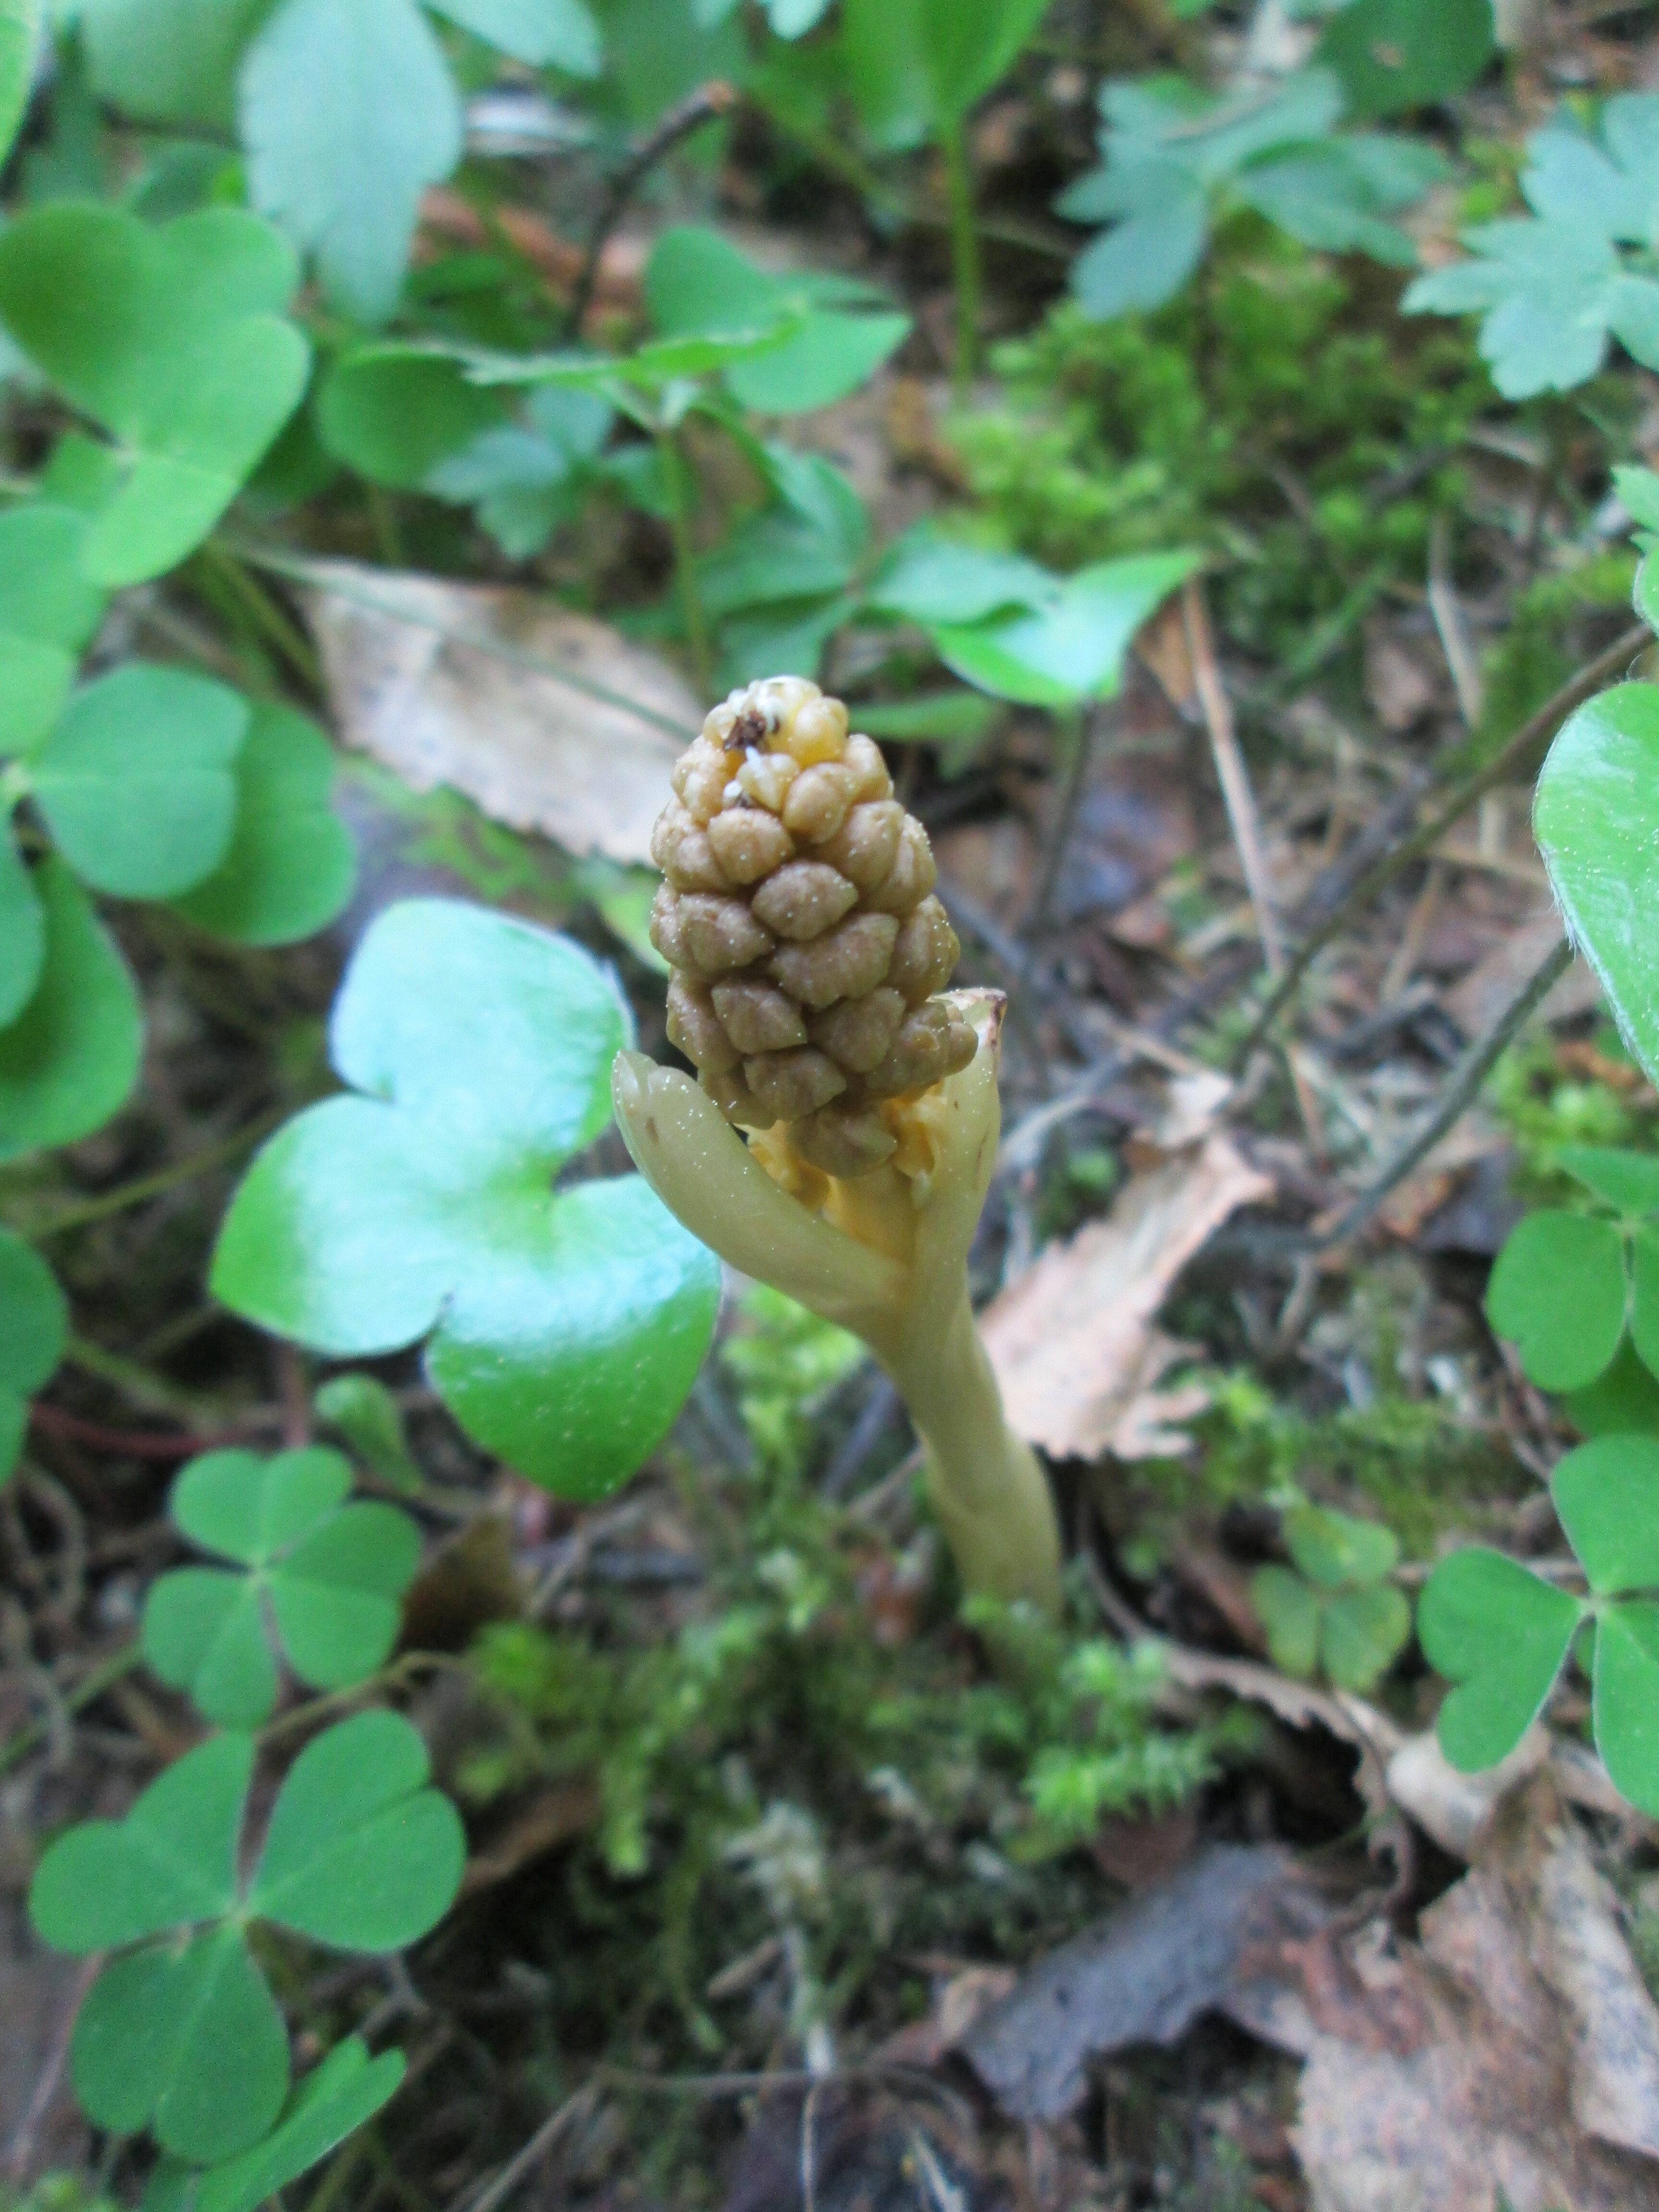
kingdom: Plantae
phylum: Tracheophyta
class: Liliopsida
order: Asparagales
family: Orchidaceae
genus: Neottia
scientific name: Neottia nidus-avis
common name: Bird's-nest orchid
